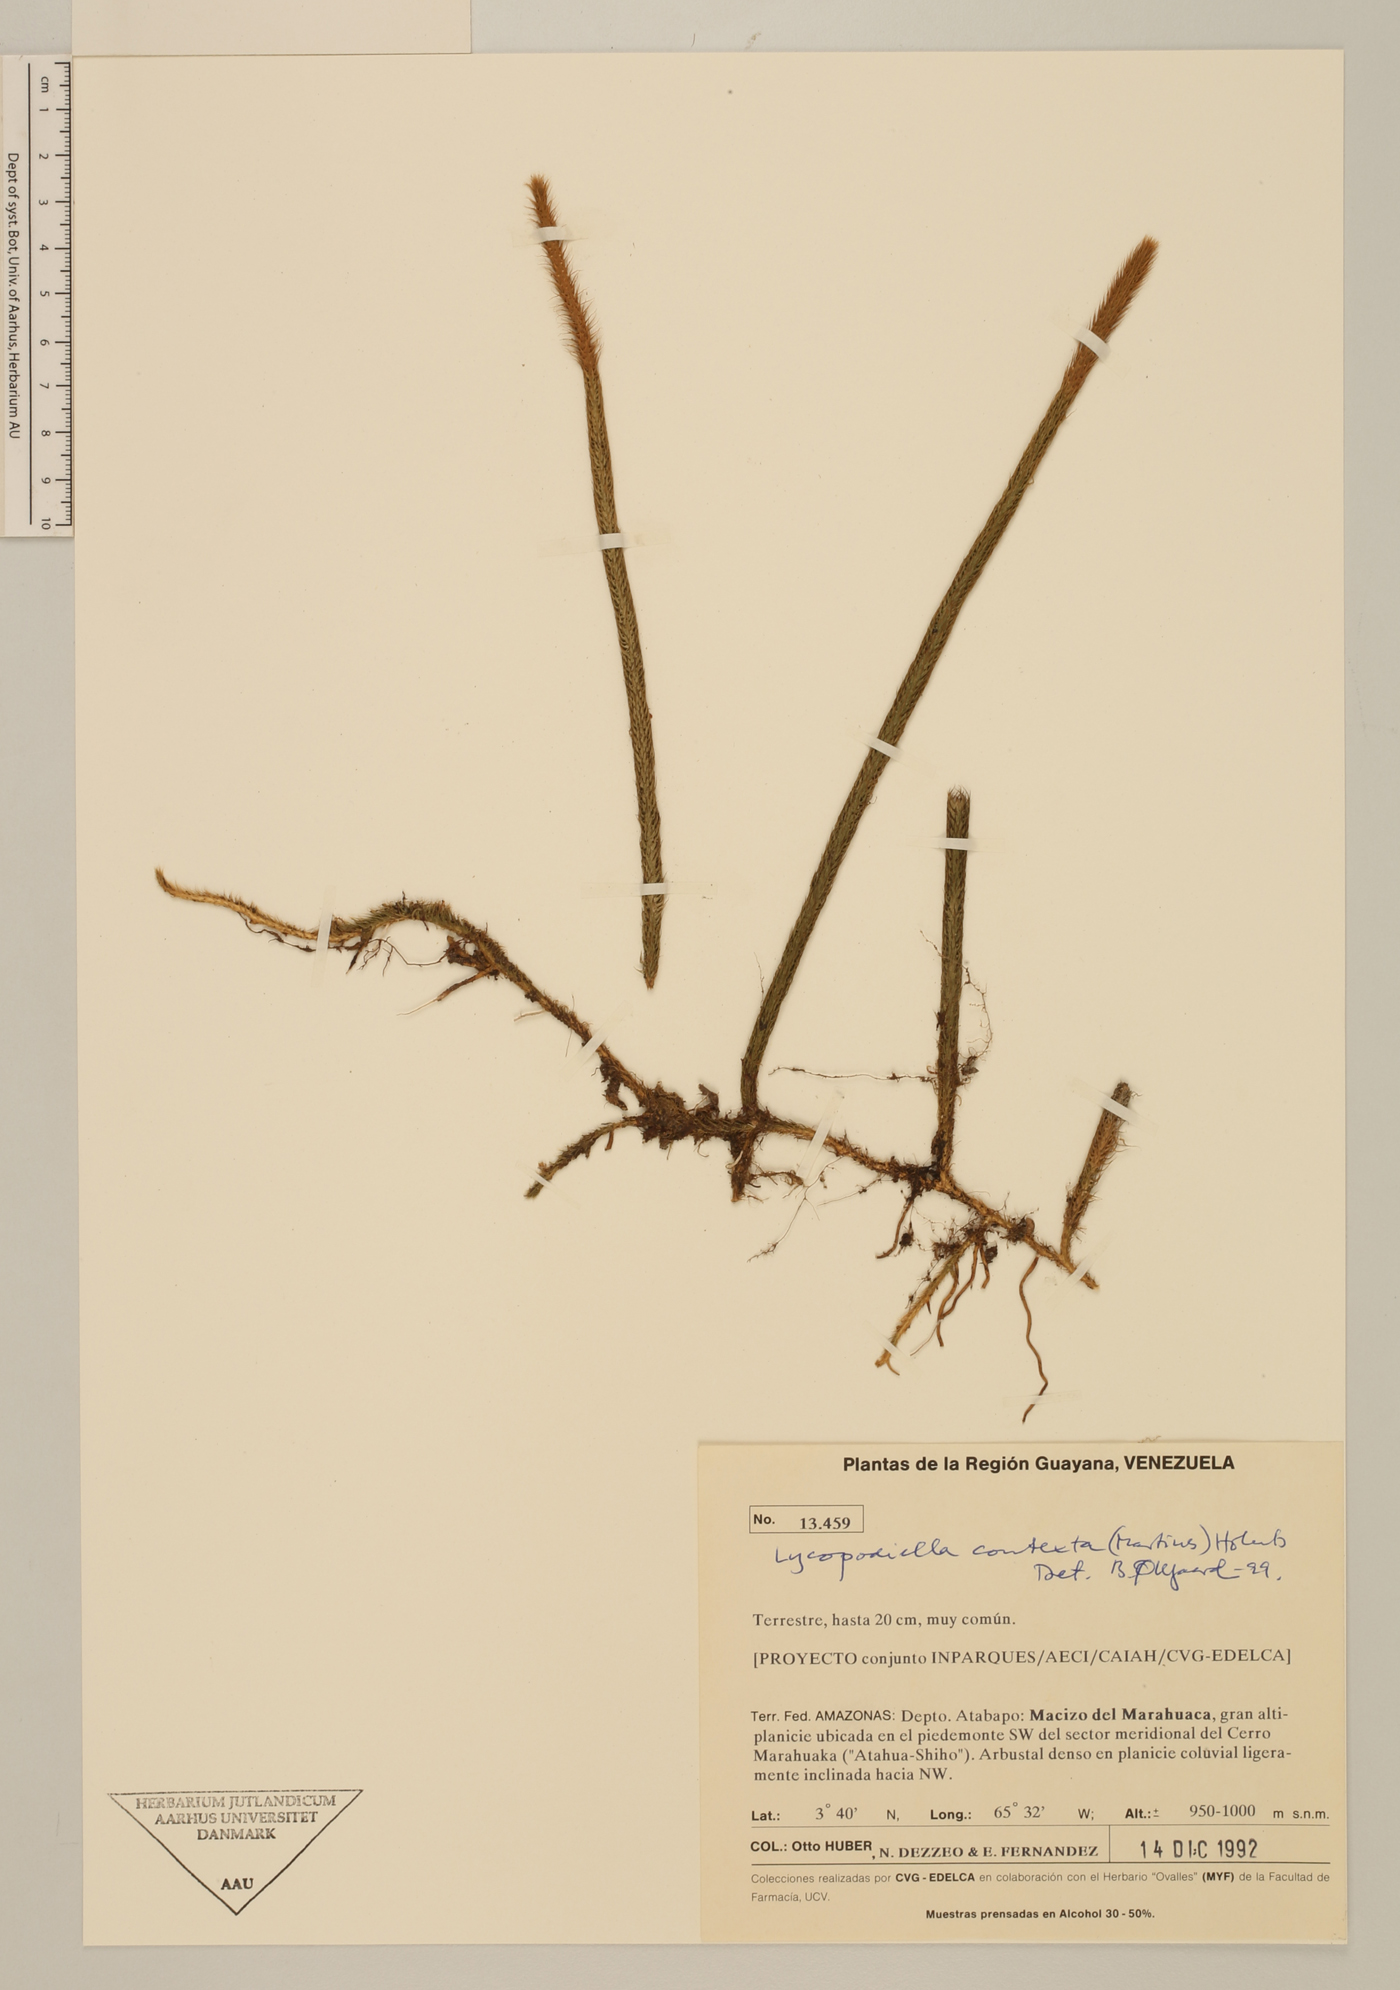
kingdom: Plantae
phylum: Tracheophyta
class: Lycopodiopsida
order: Lycopodiales
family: Lycopodiaceae
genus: Pseudolycopodiella
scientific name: Pseudolycopodiella contexta
